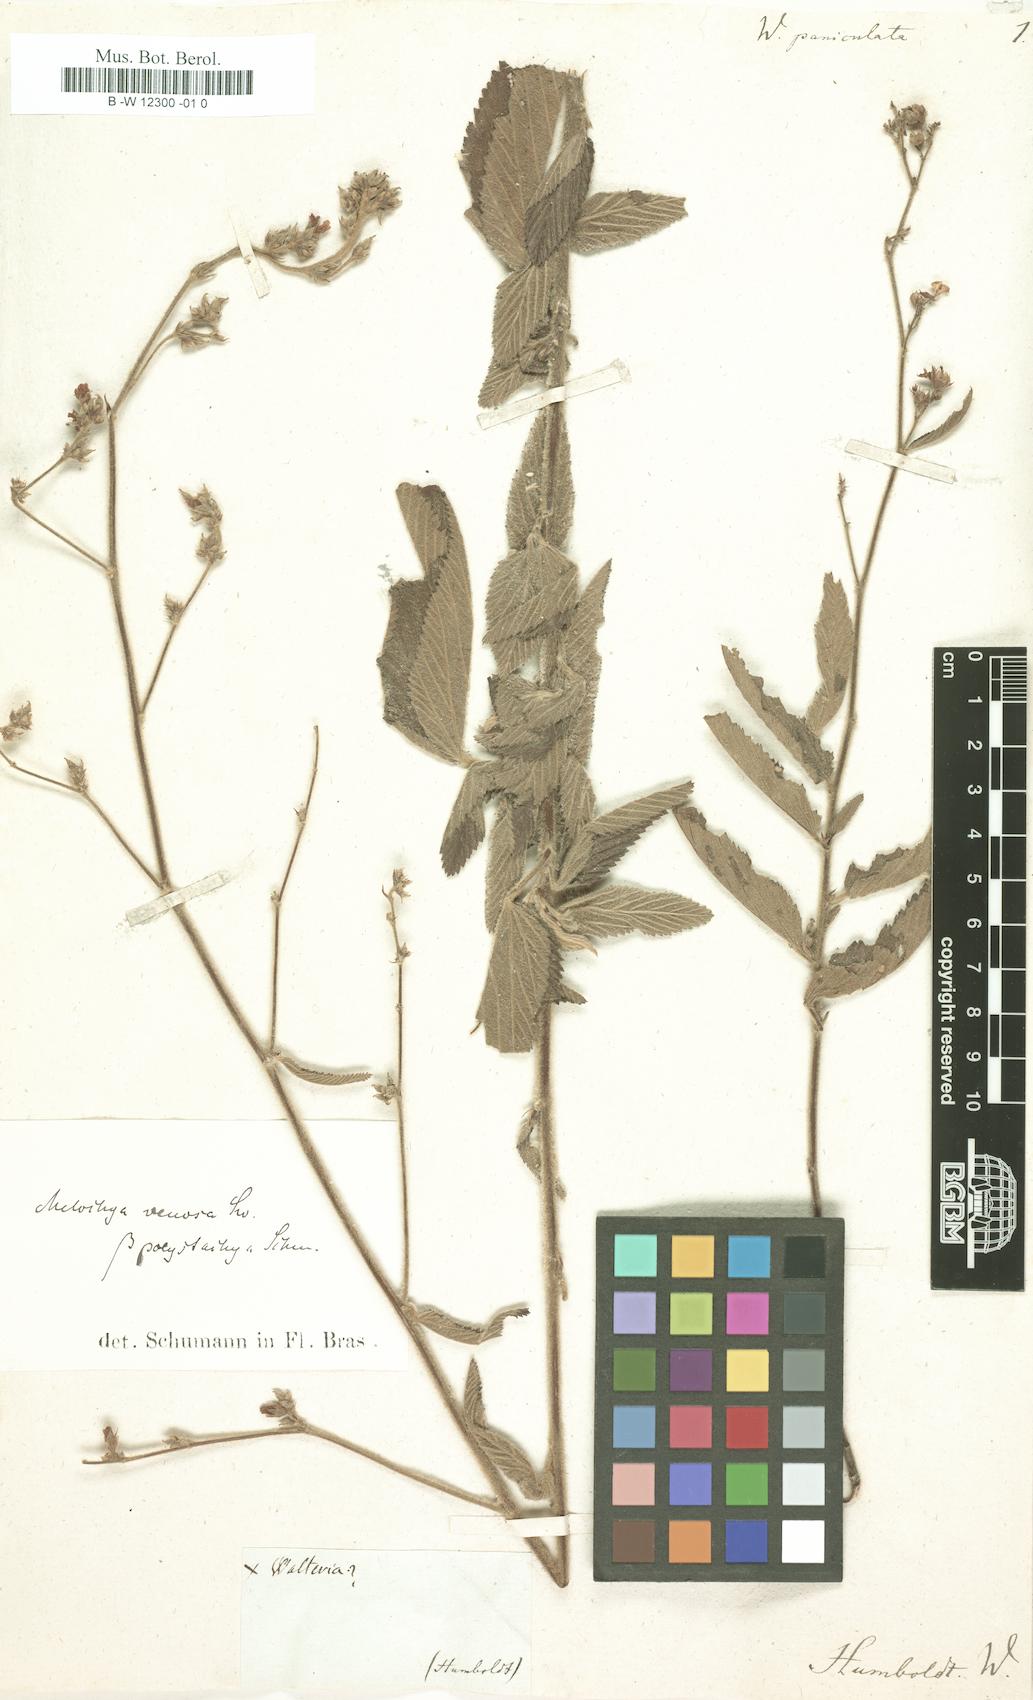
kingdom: Plantae
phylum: Tracheophyta
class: Magnoliopsida
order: Malvales
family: Malvaceae
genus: Waltheria
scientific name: Waltheria indica
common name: Leather-coat
